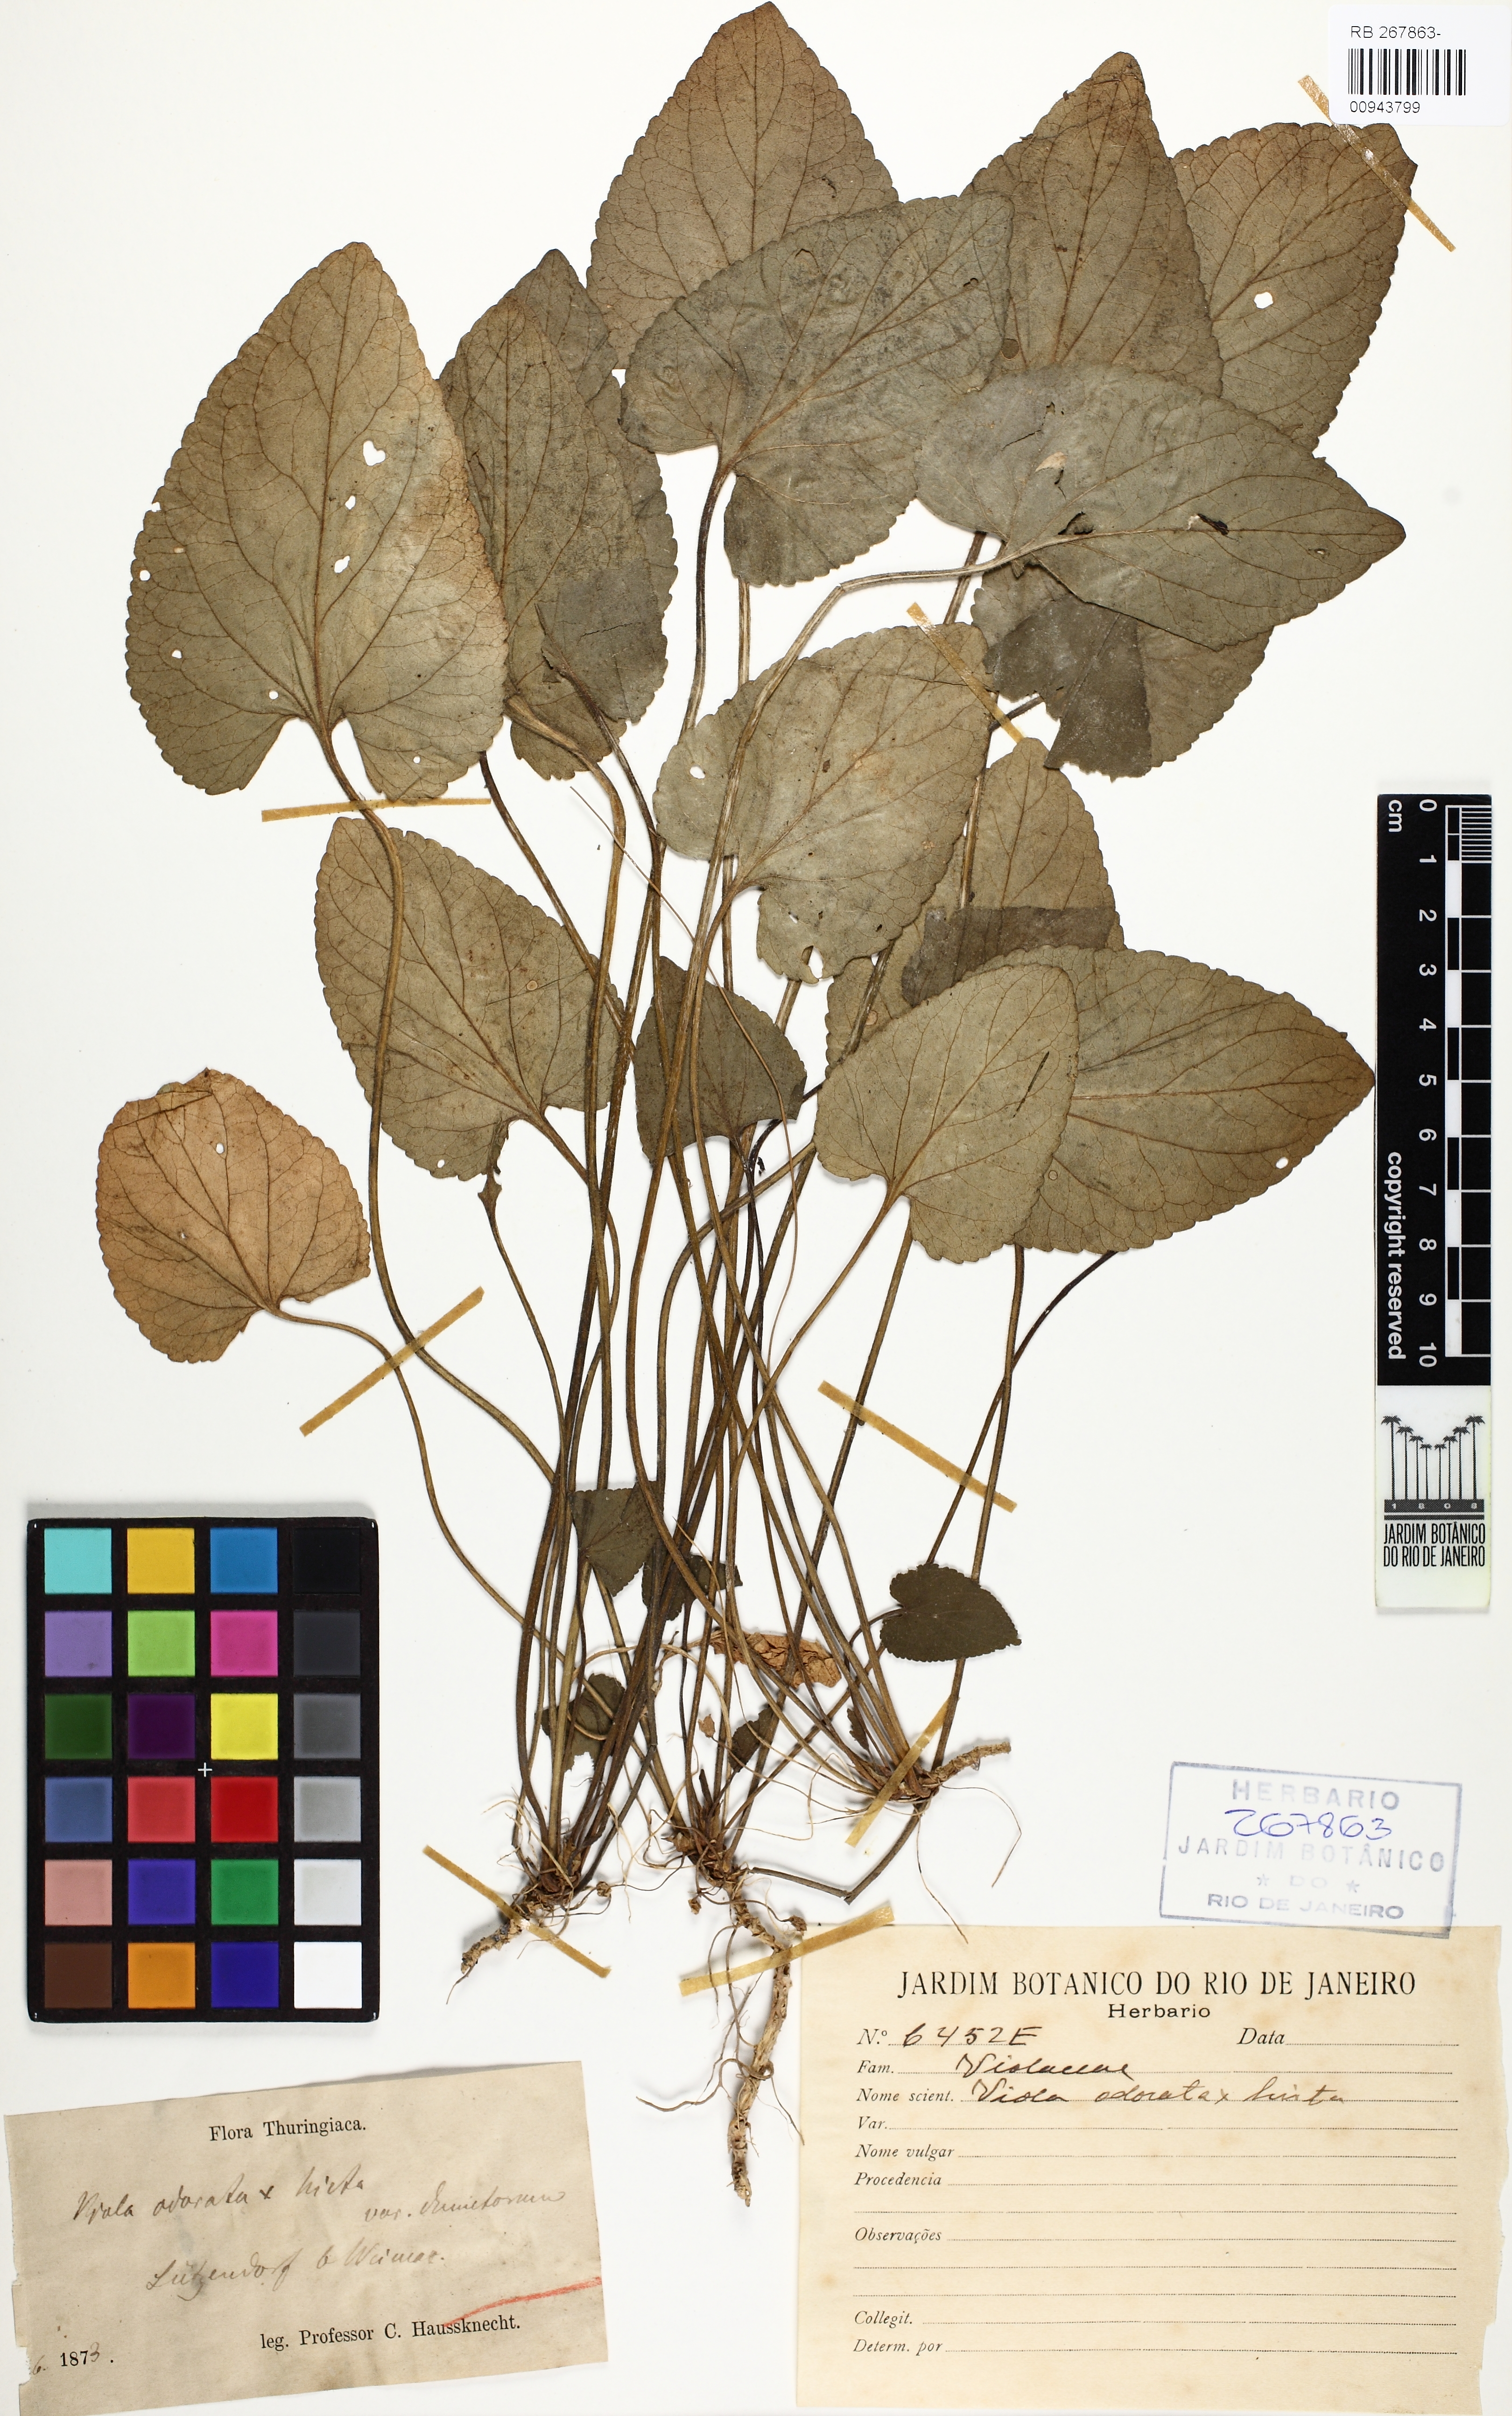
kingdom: Plantae
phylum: Tracheophyta
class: Magnoliopsida
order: Malpighiales
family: Violaceae
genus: Viola
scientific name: Viola odorata
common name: Sweet violet
